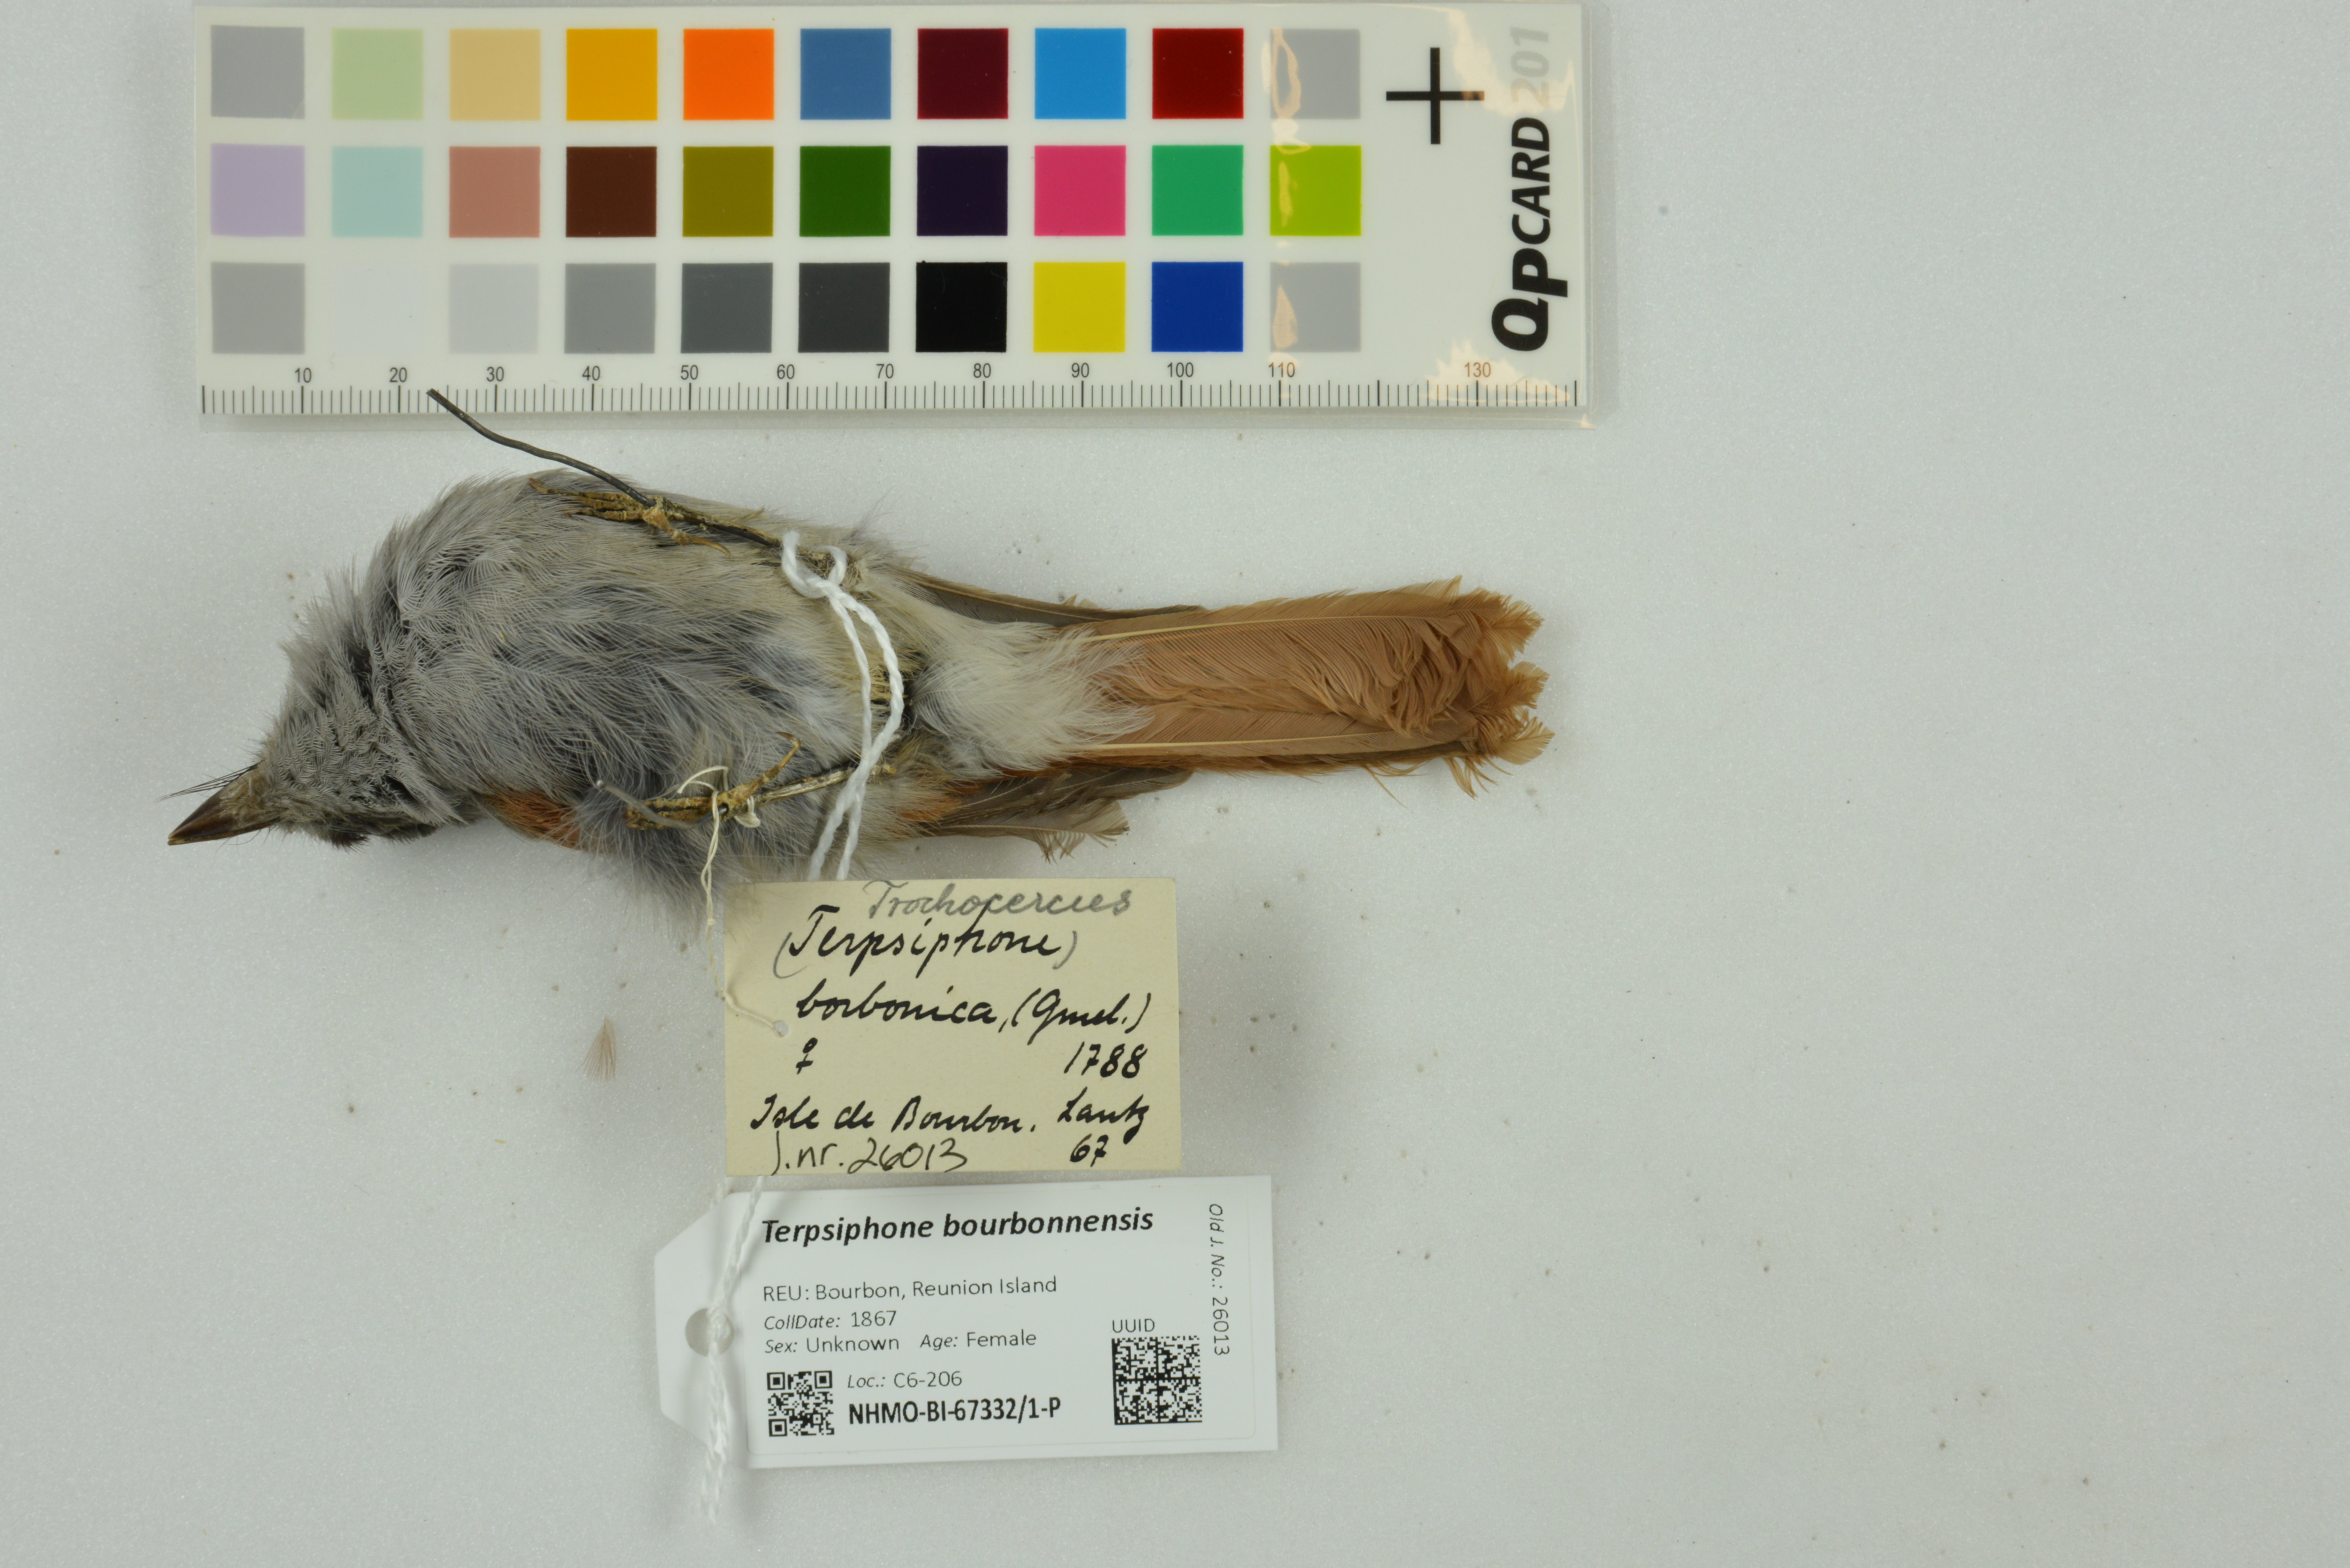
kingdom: Animalia
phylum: Chordata
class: Aves
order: Passeriformes
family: Monarchidae
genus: Terpsiphone
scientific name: Terpsiphone bourbonnensis
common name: Mascarene paradise flycatcher
